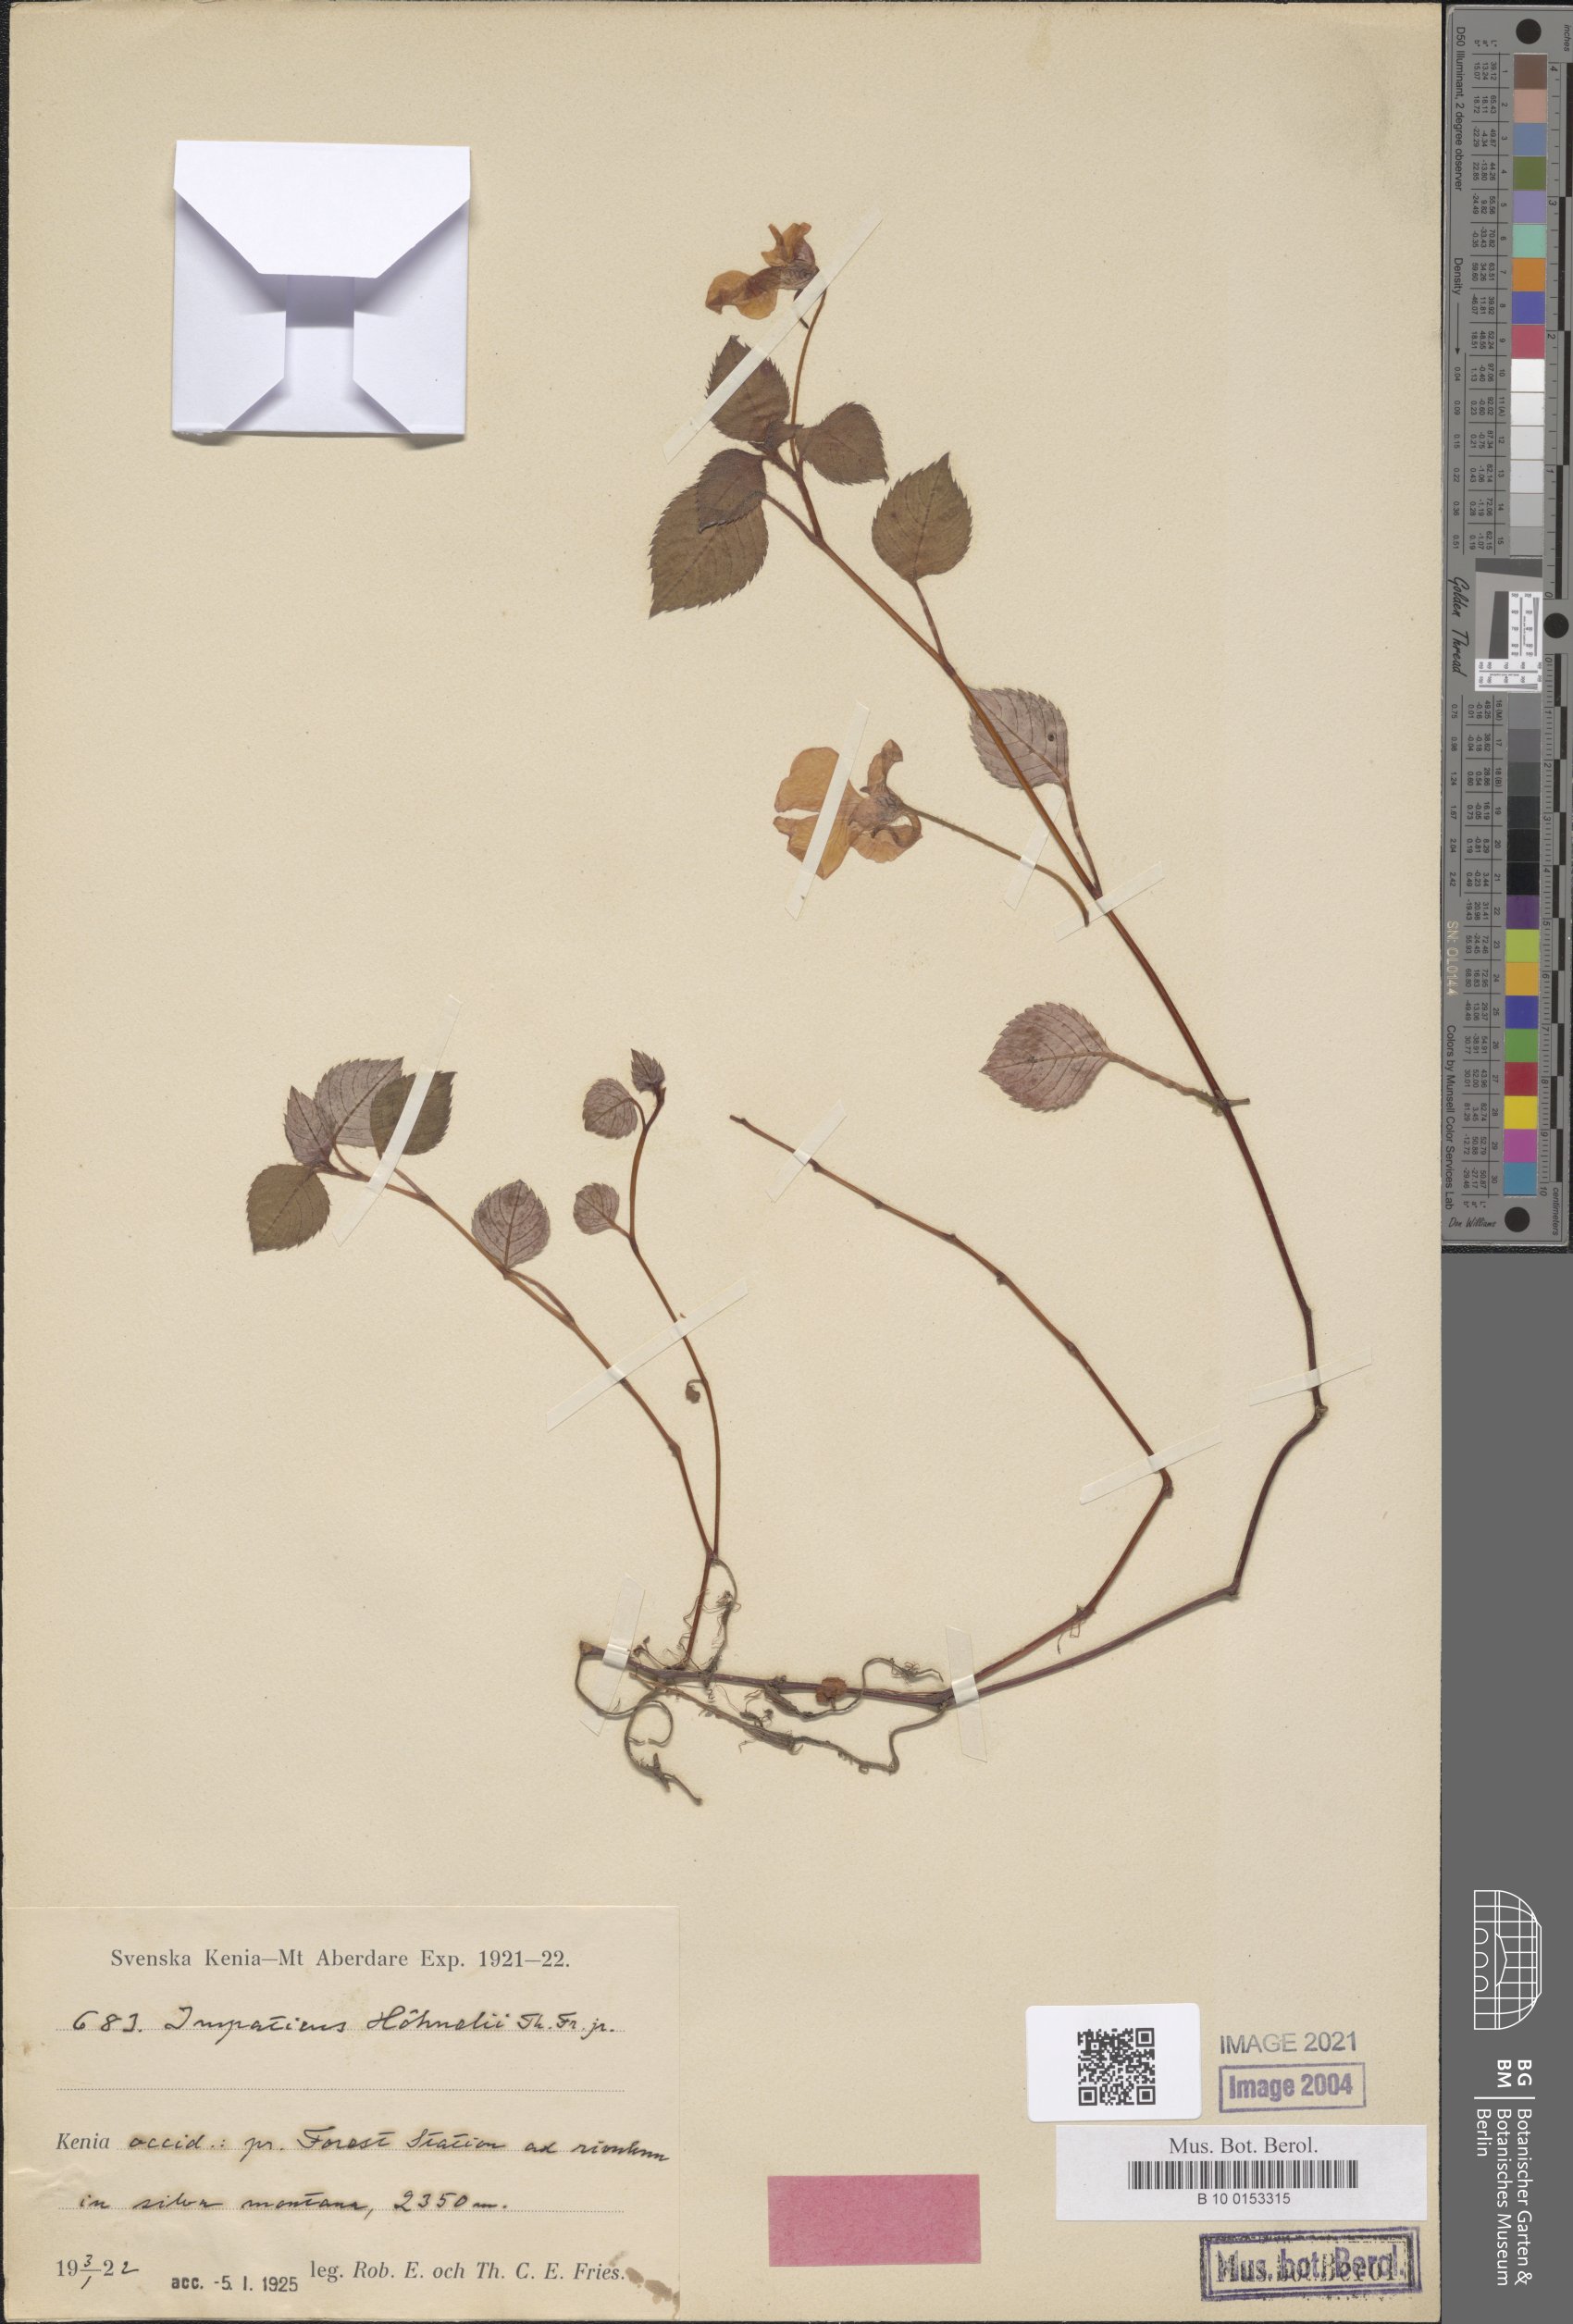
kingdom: Plantae
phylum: Tracheophyta
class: Magnoliopsida
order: Ericales
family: Balsaminaceae
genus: Impatiens
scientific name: Impatiens hoehnelii
